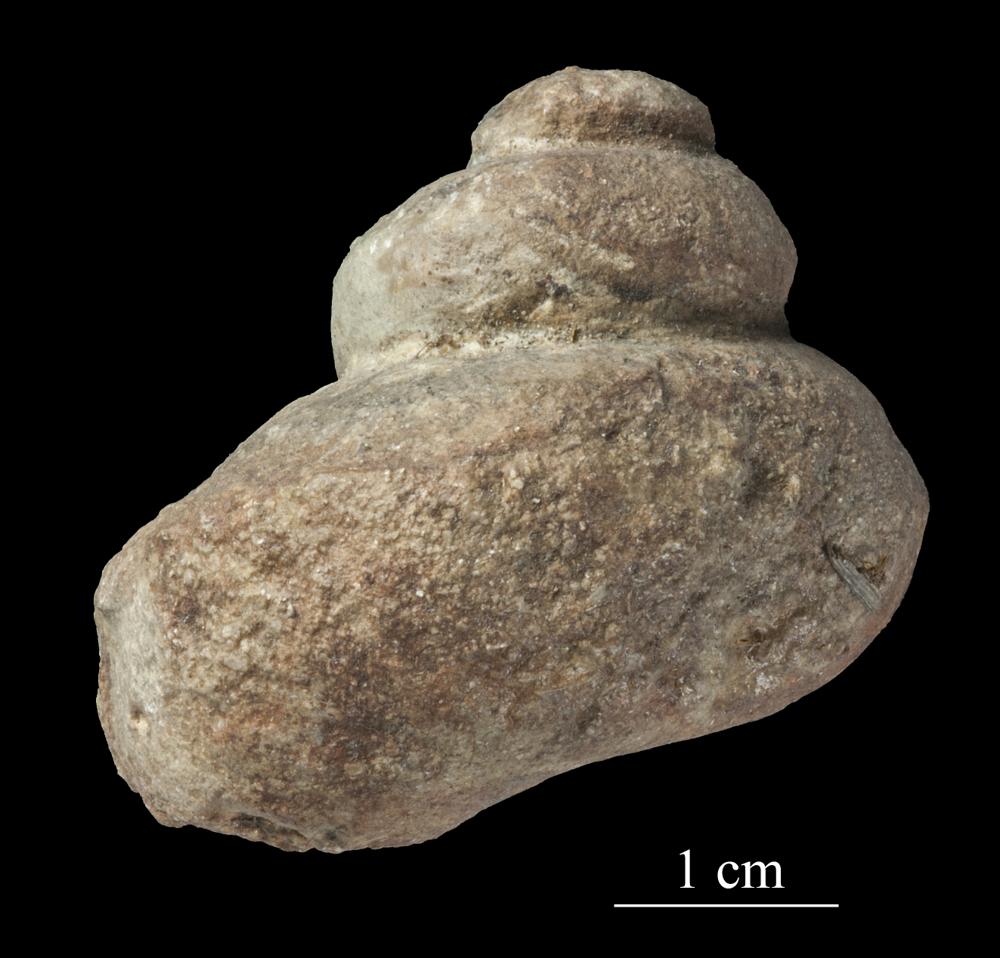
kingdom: Animalia
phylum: Mollusca
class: Gastropoda
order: Pleurotomariida
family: Phymatopleuridae
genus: Worthenia
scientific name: Worthenia
